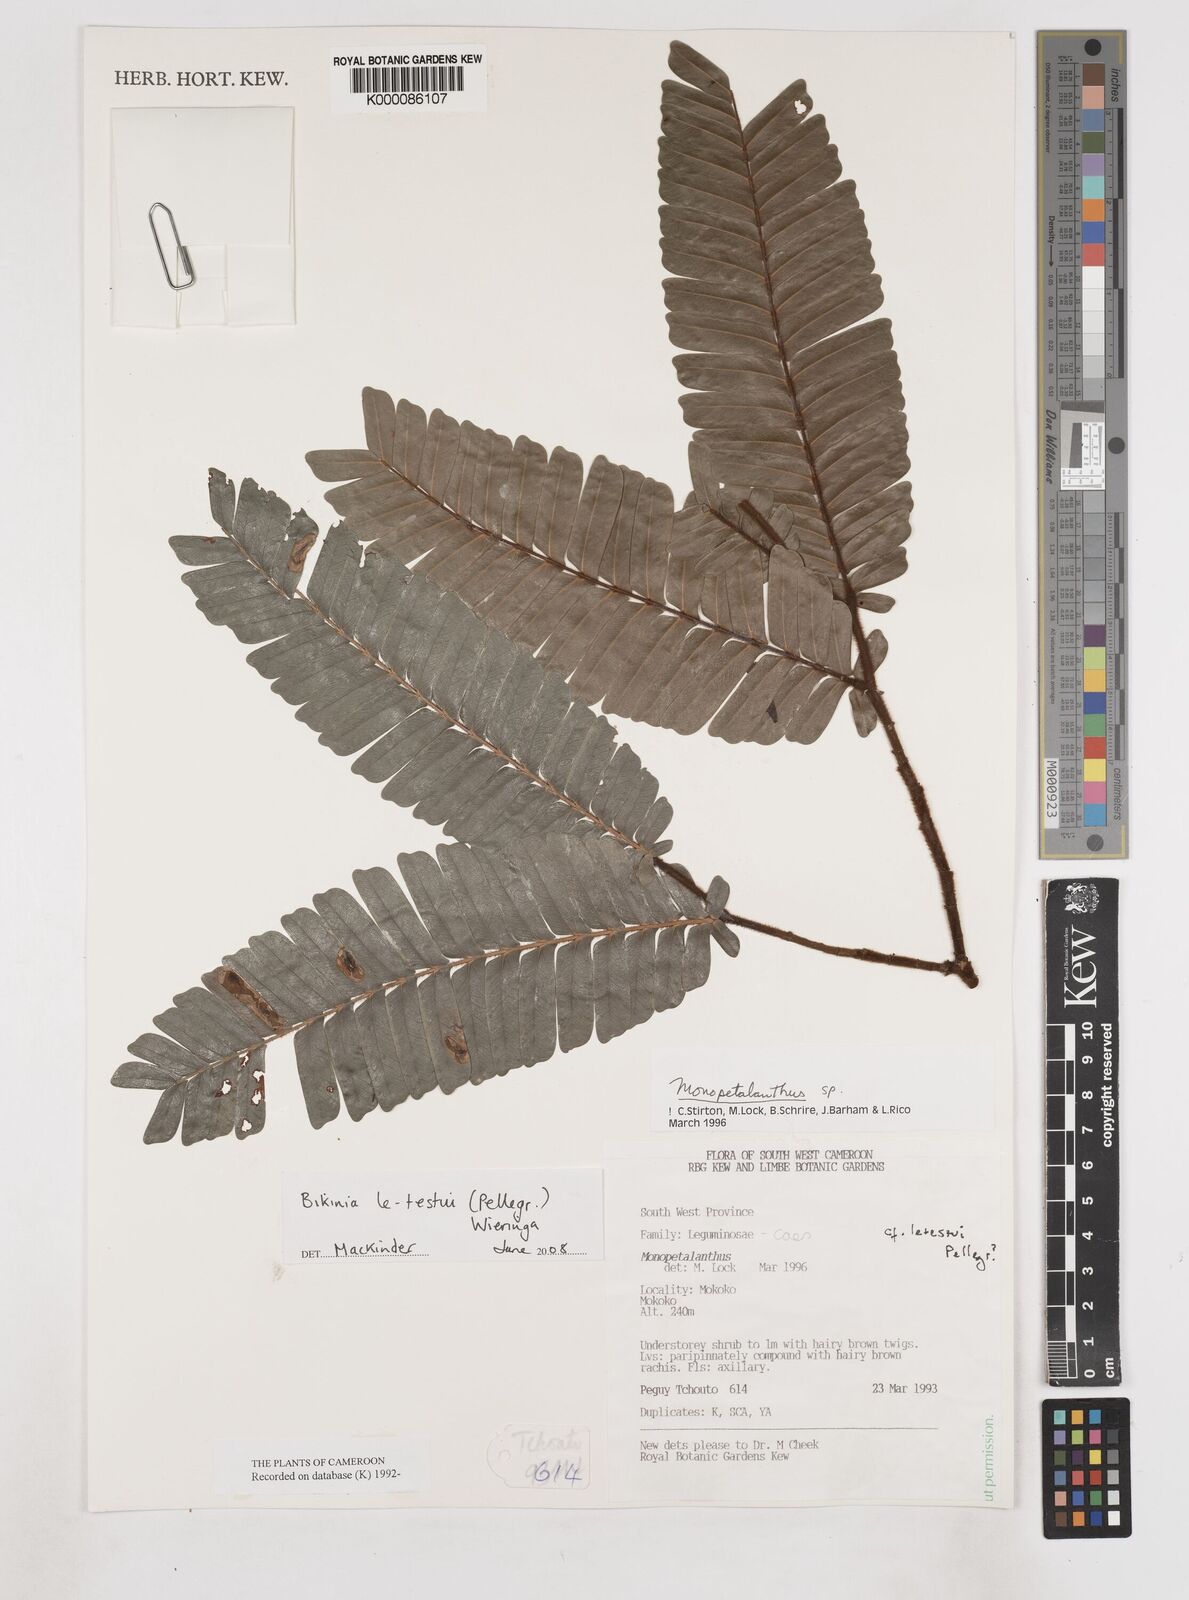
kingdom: Plantae
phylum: Tracheophyta
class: Magnoliopsida
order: Fabales
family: Fabaceae
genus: Aphanocalyx
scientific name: Aphanocalyx
